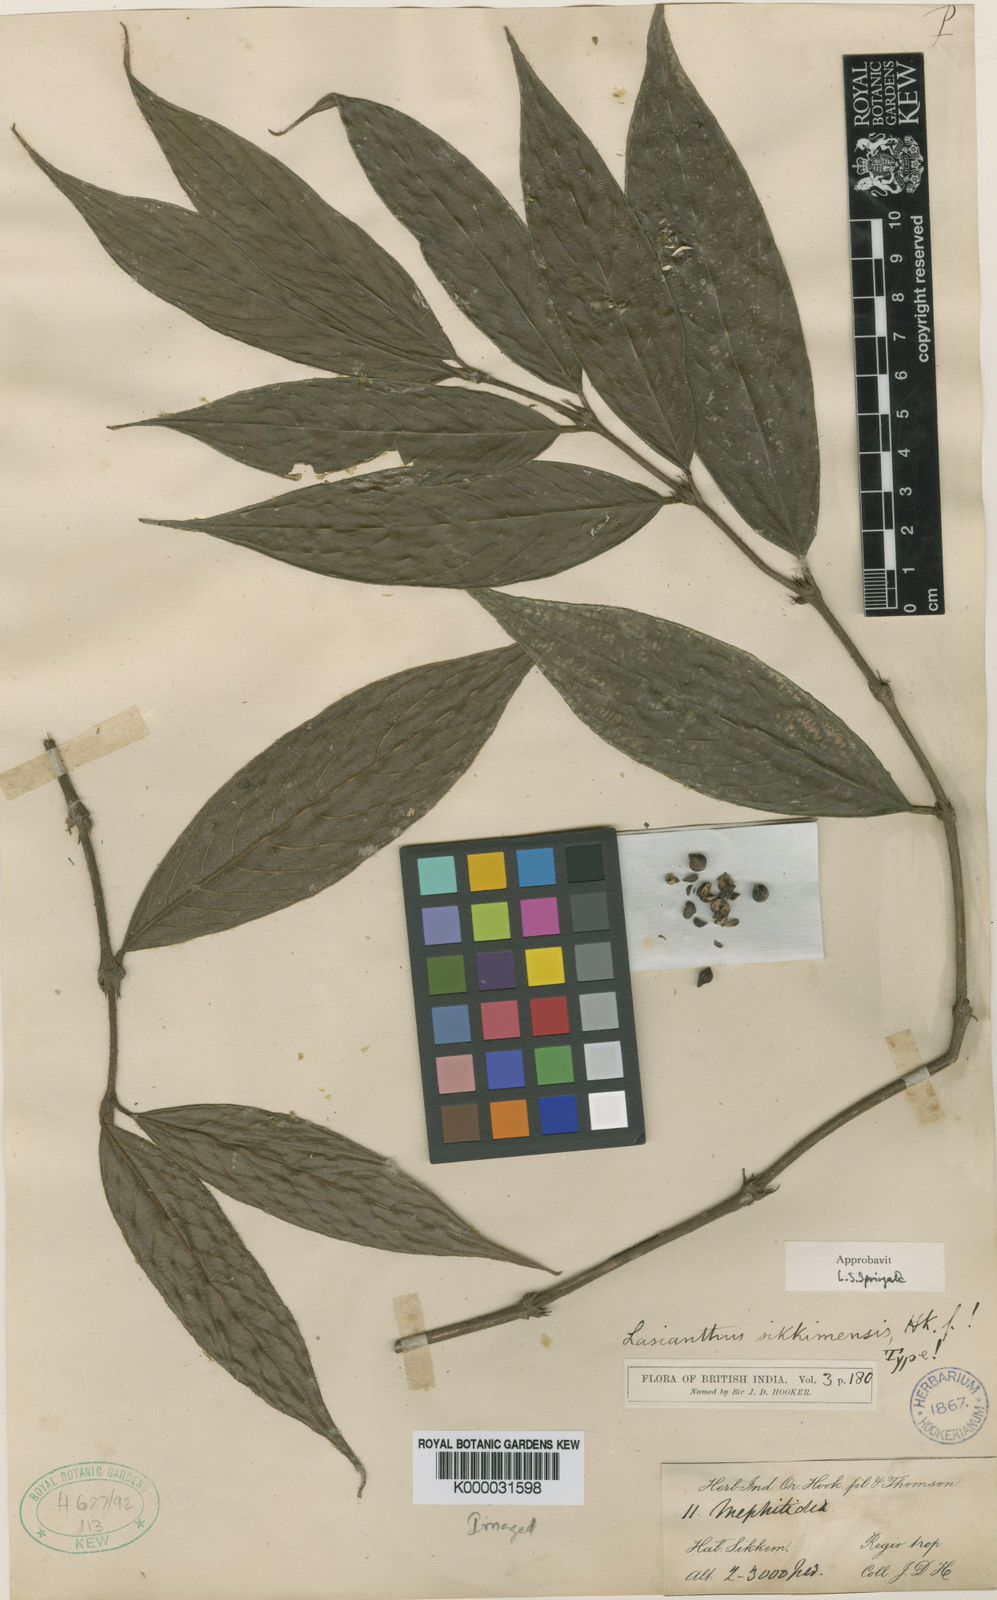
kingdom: Plantae
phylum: Tracheophyta
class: Magnoliopsida
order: Gentianales
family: Rubiaceae
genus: Lasianthus
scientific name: Lasianthus sikkimensis
